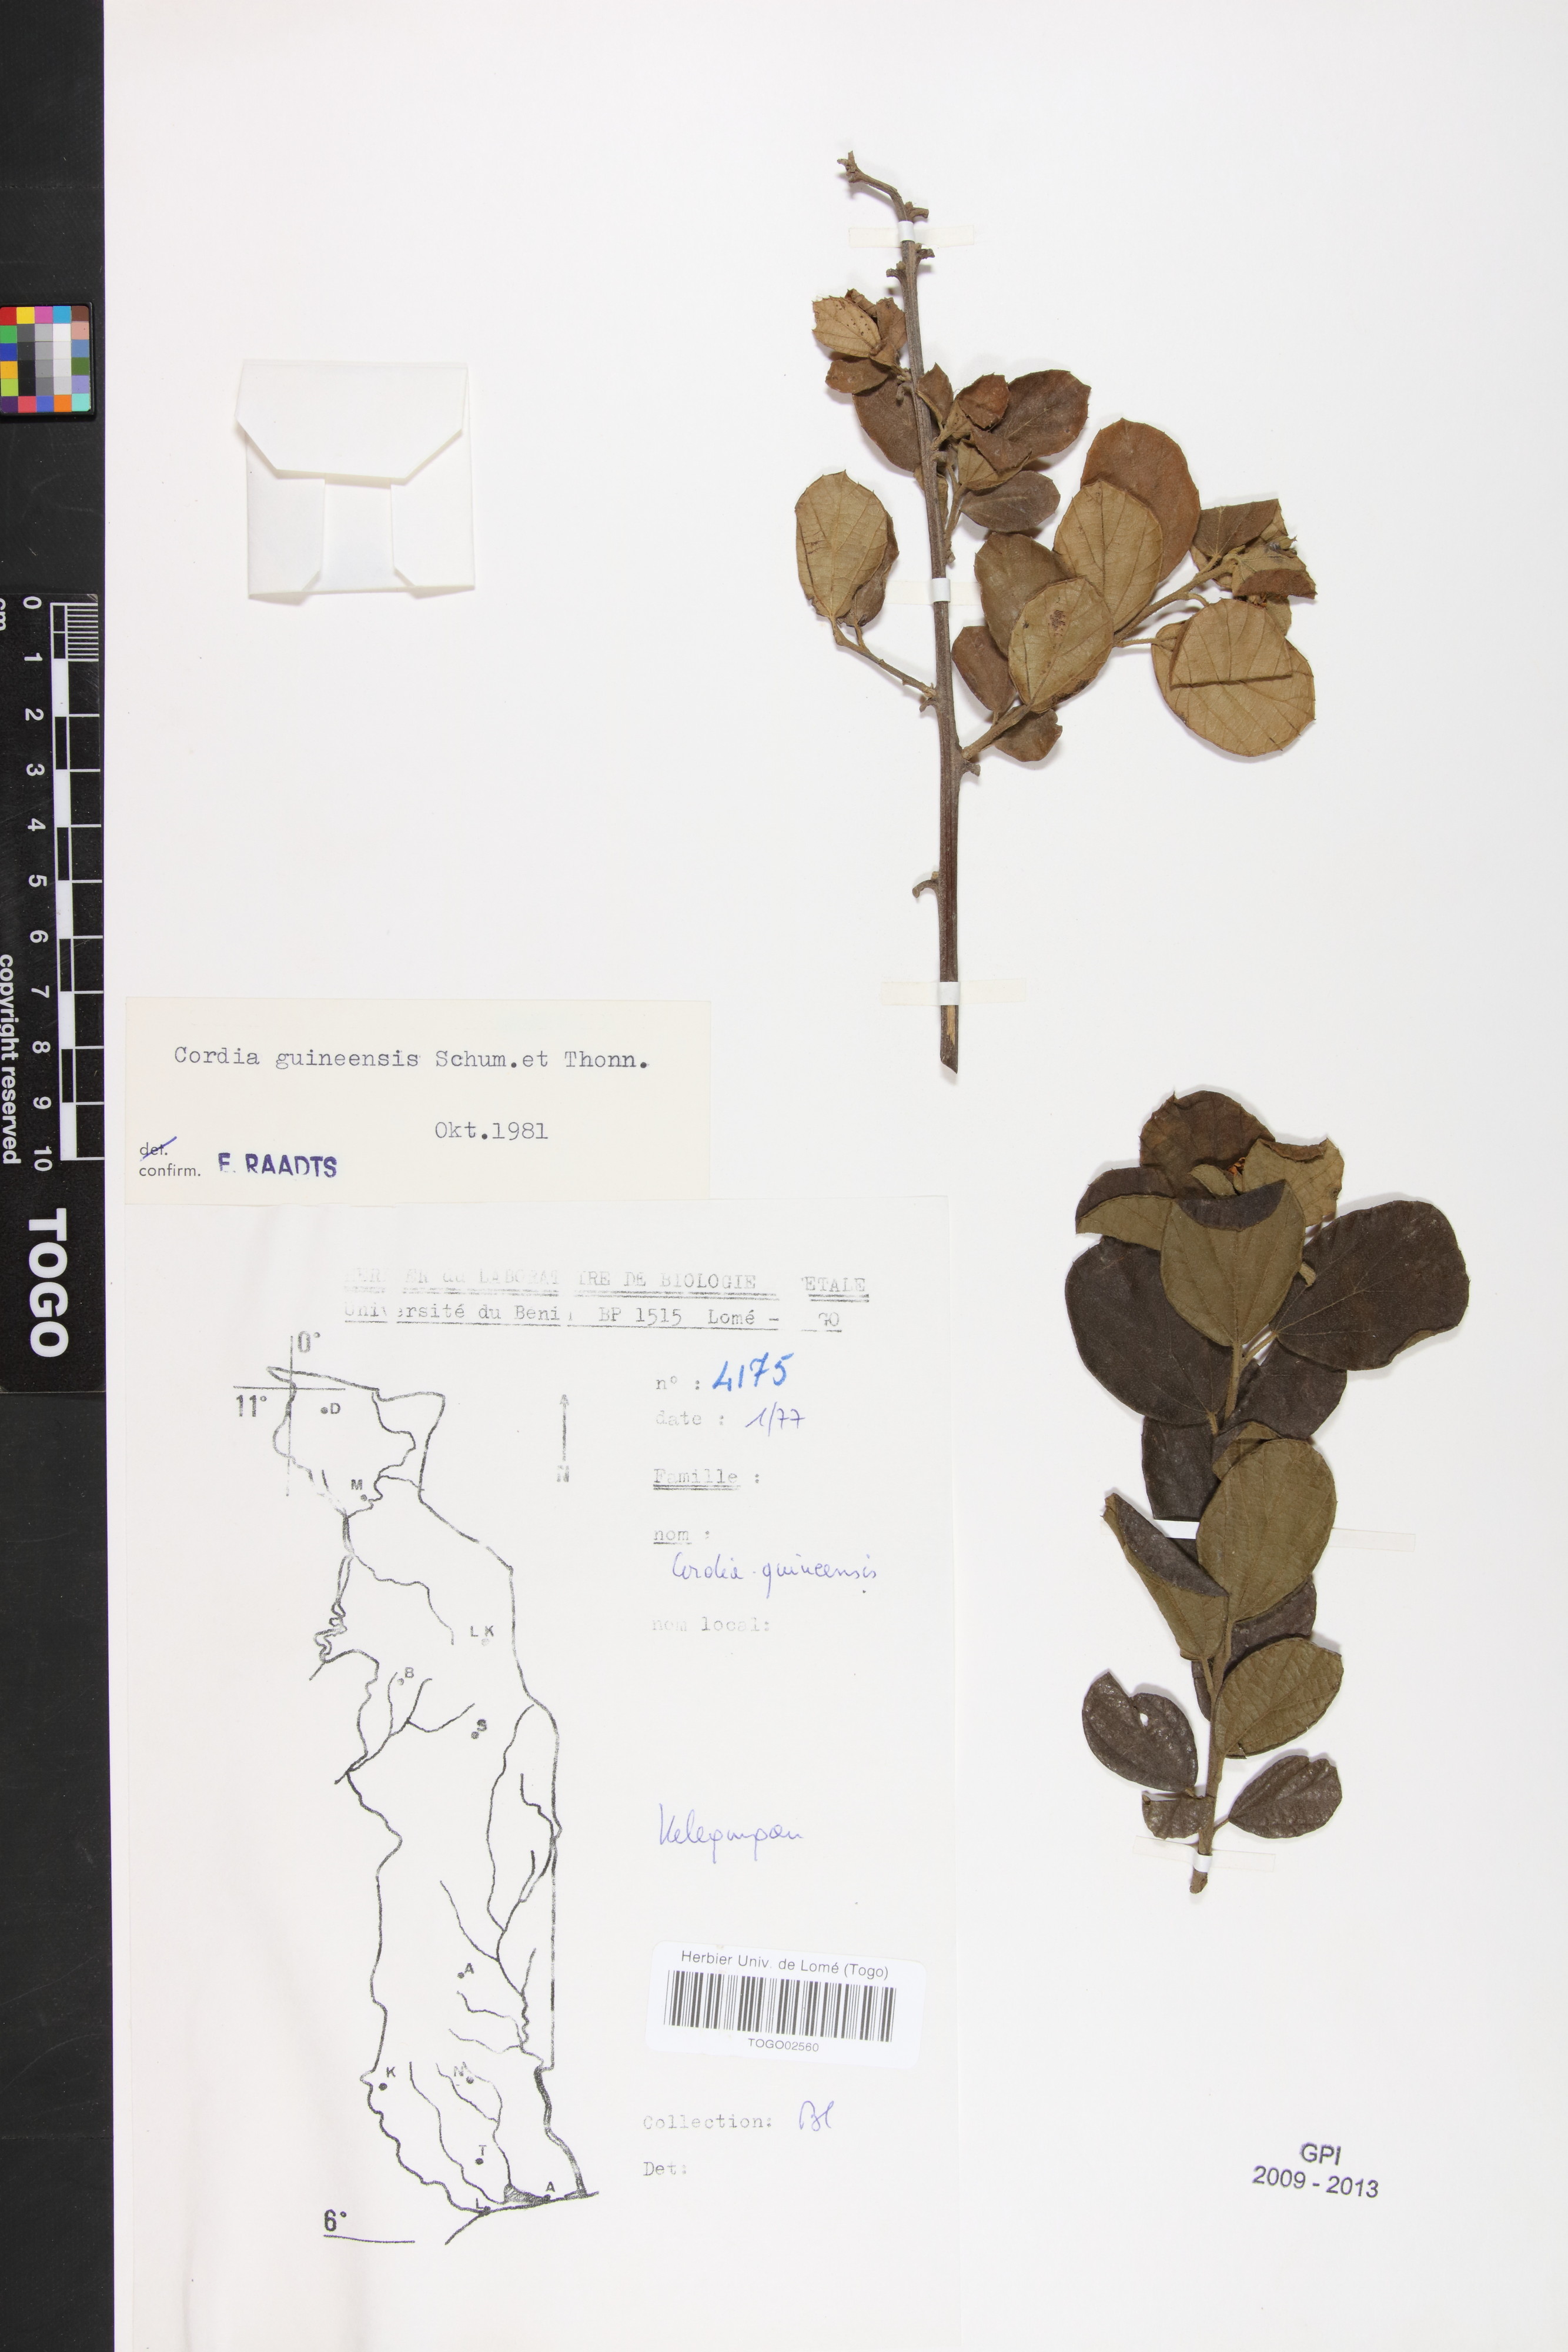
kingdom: Plantae
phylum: Tracheophyta
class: Magnoliopsida
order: Boraginales
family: Cordiaceae
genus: Cordia
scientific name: Cordia guineensis
